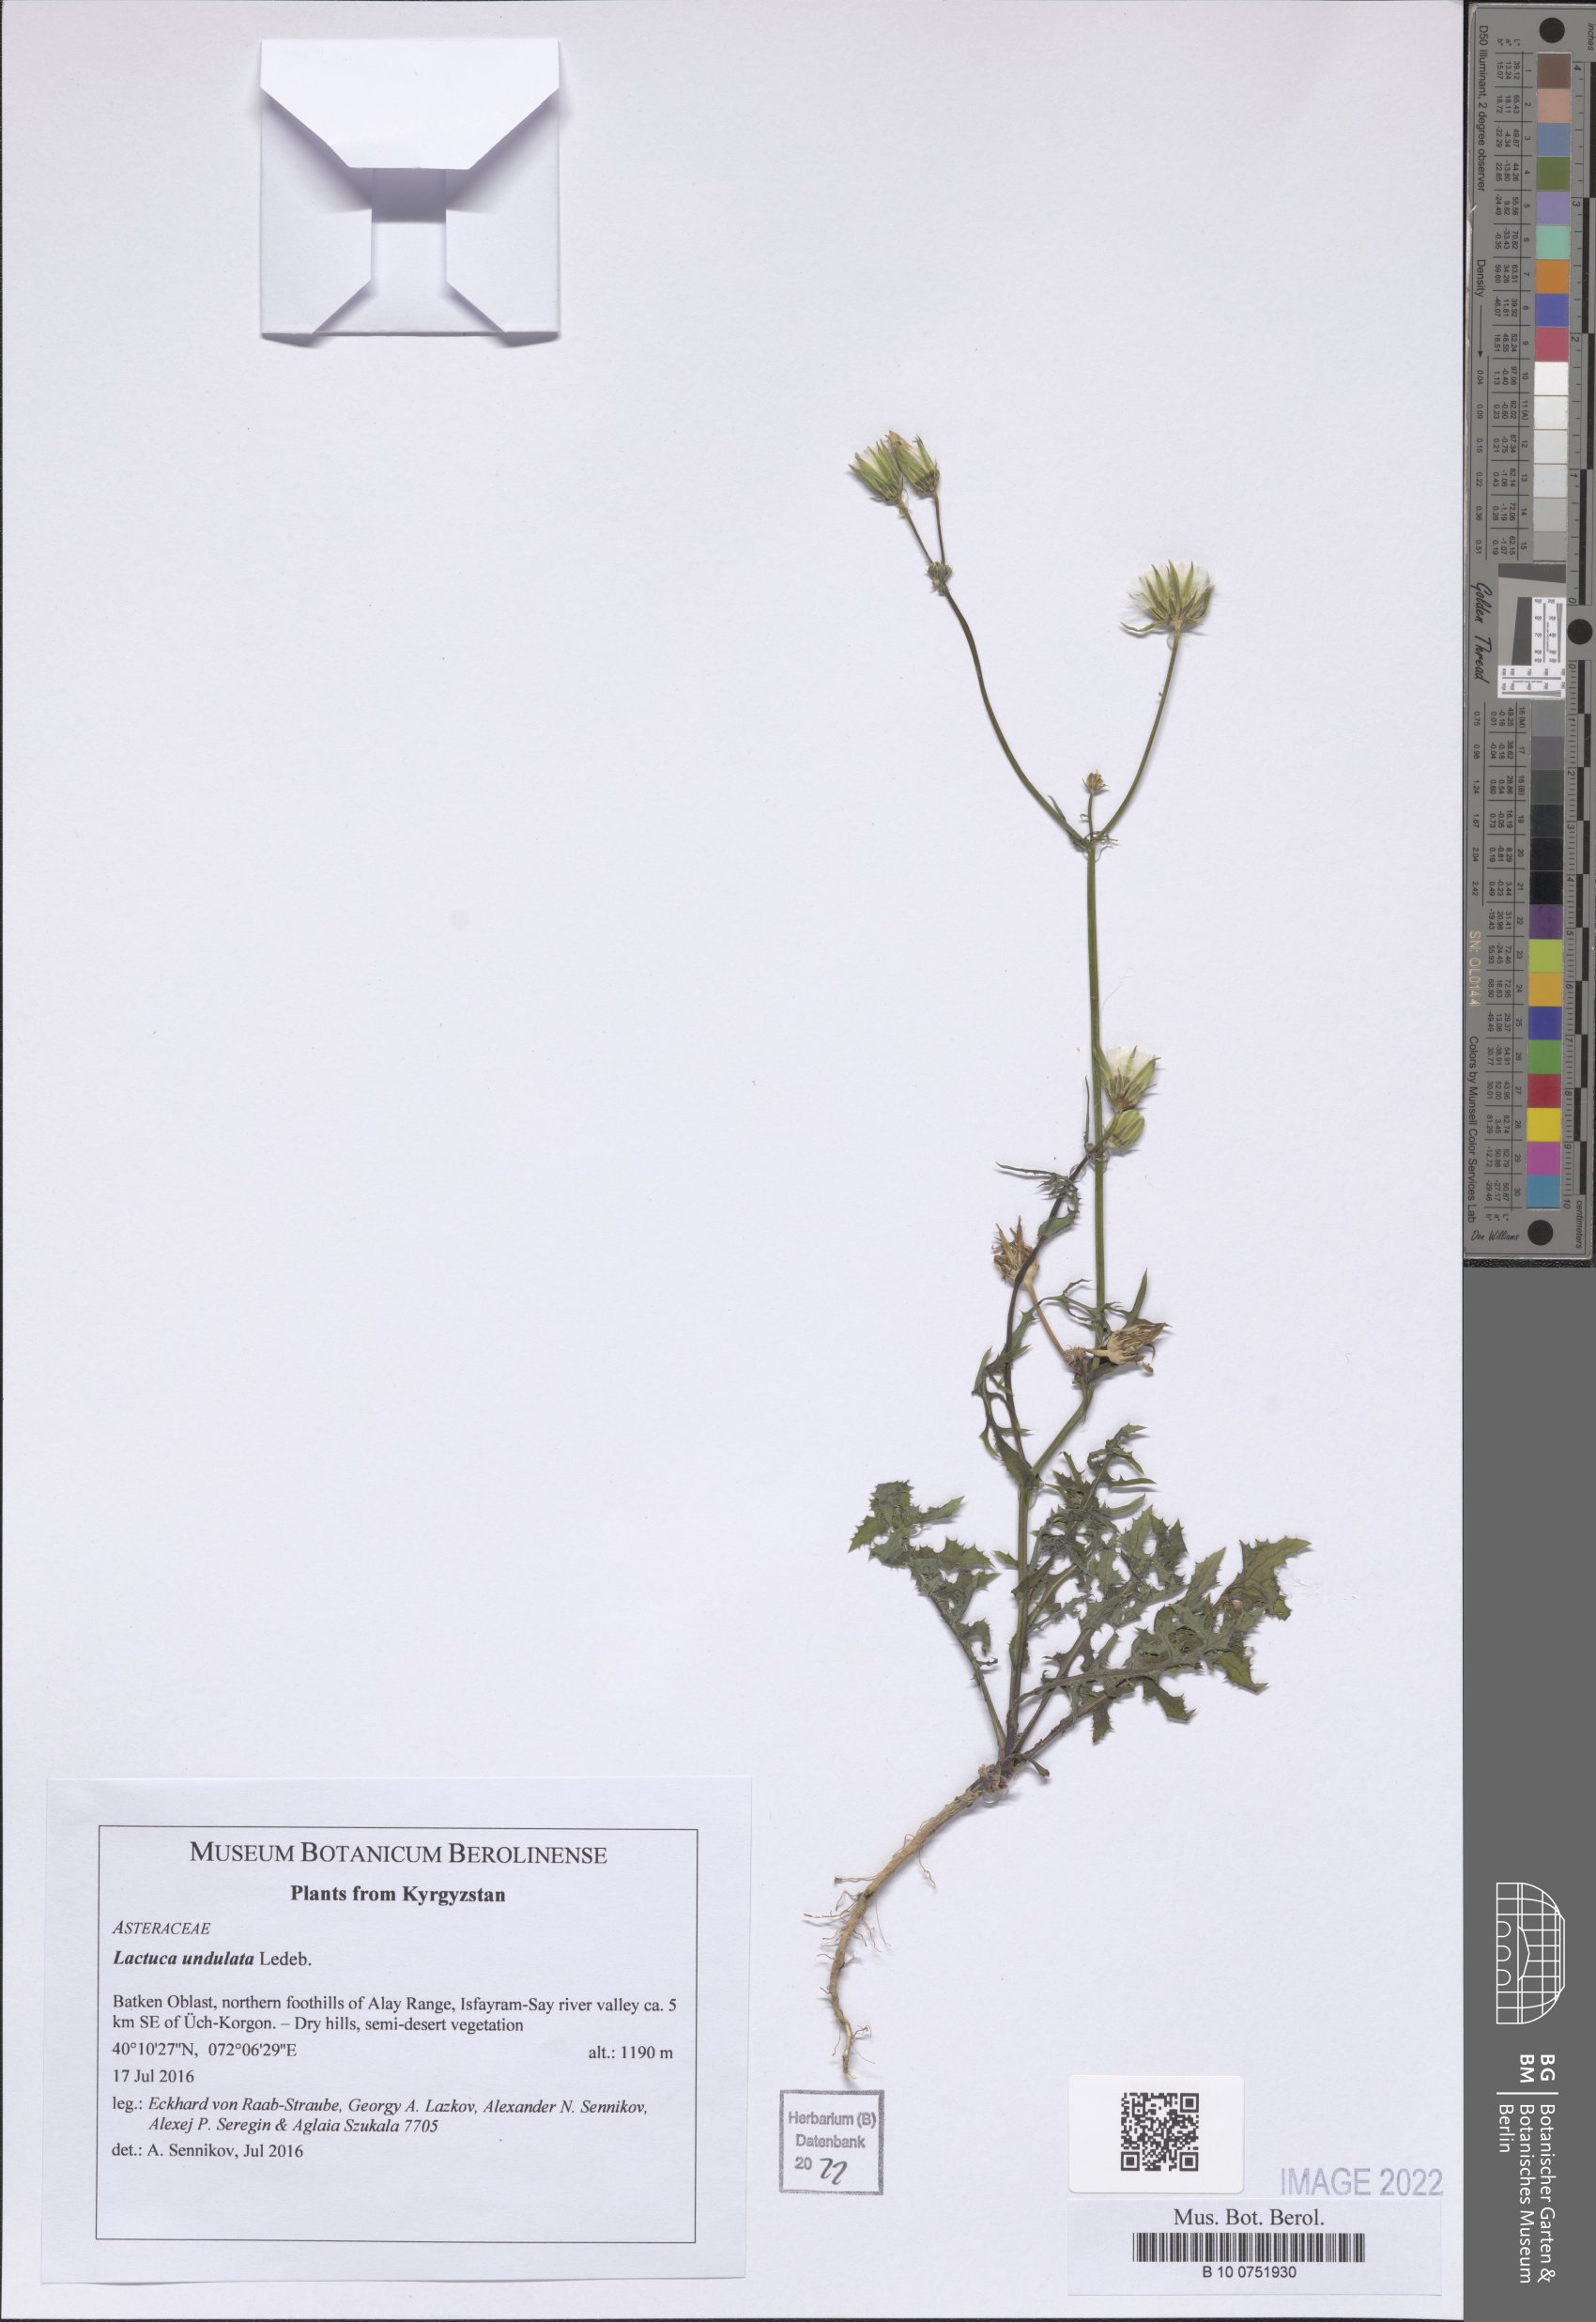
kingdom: Plantae
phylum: Tracheophyta
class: Magnoliopsida
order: Asterales
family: Asteraceae
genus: Lactuca
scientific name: Lactuca undulata
